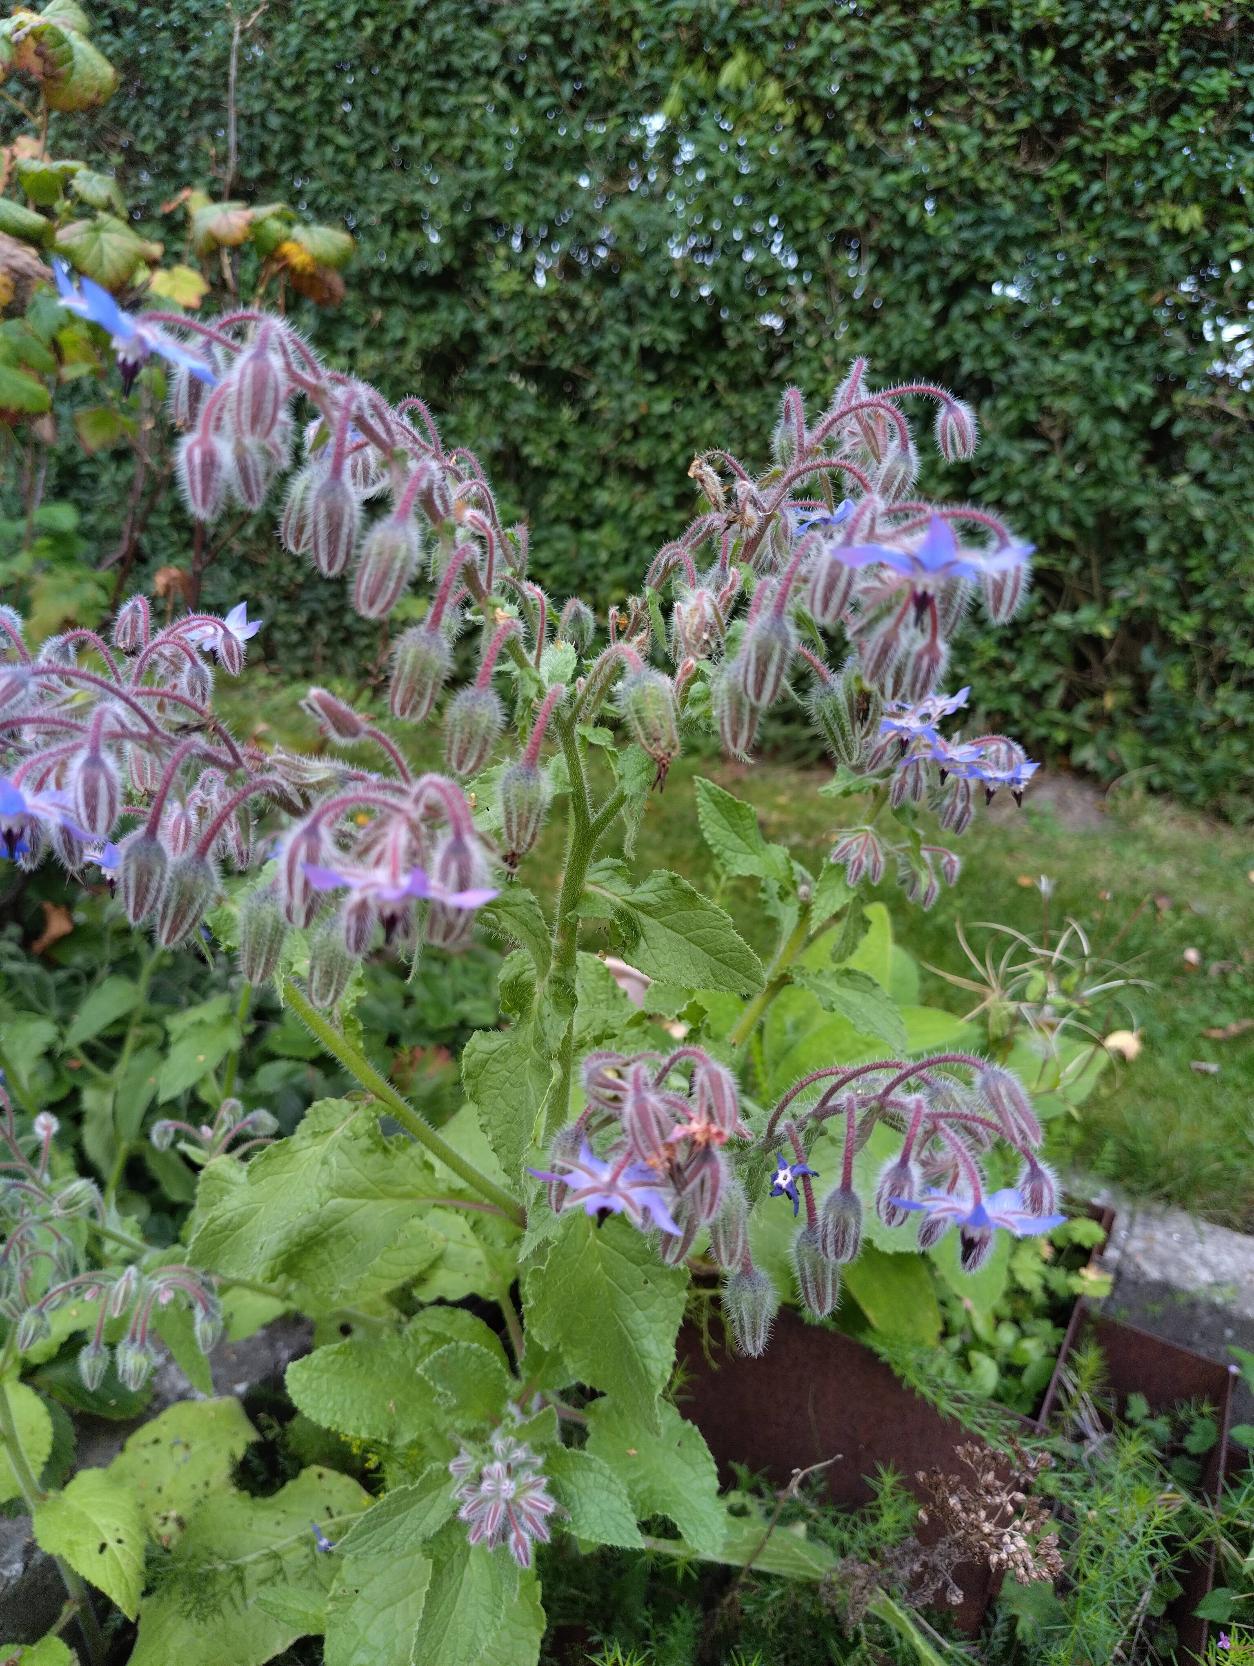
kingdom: Plantae
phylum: Tracheophyta
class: Magnoliopsida
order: Boraginales
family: Boraginaceae
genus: Borago
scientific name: Borago officinalis
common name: Hjulkrone
